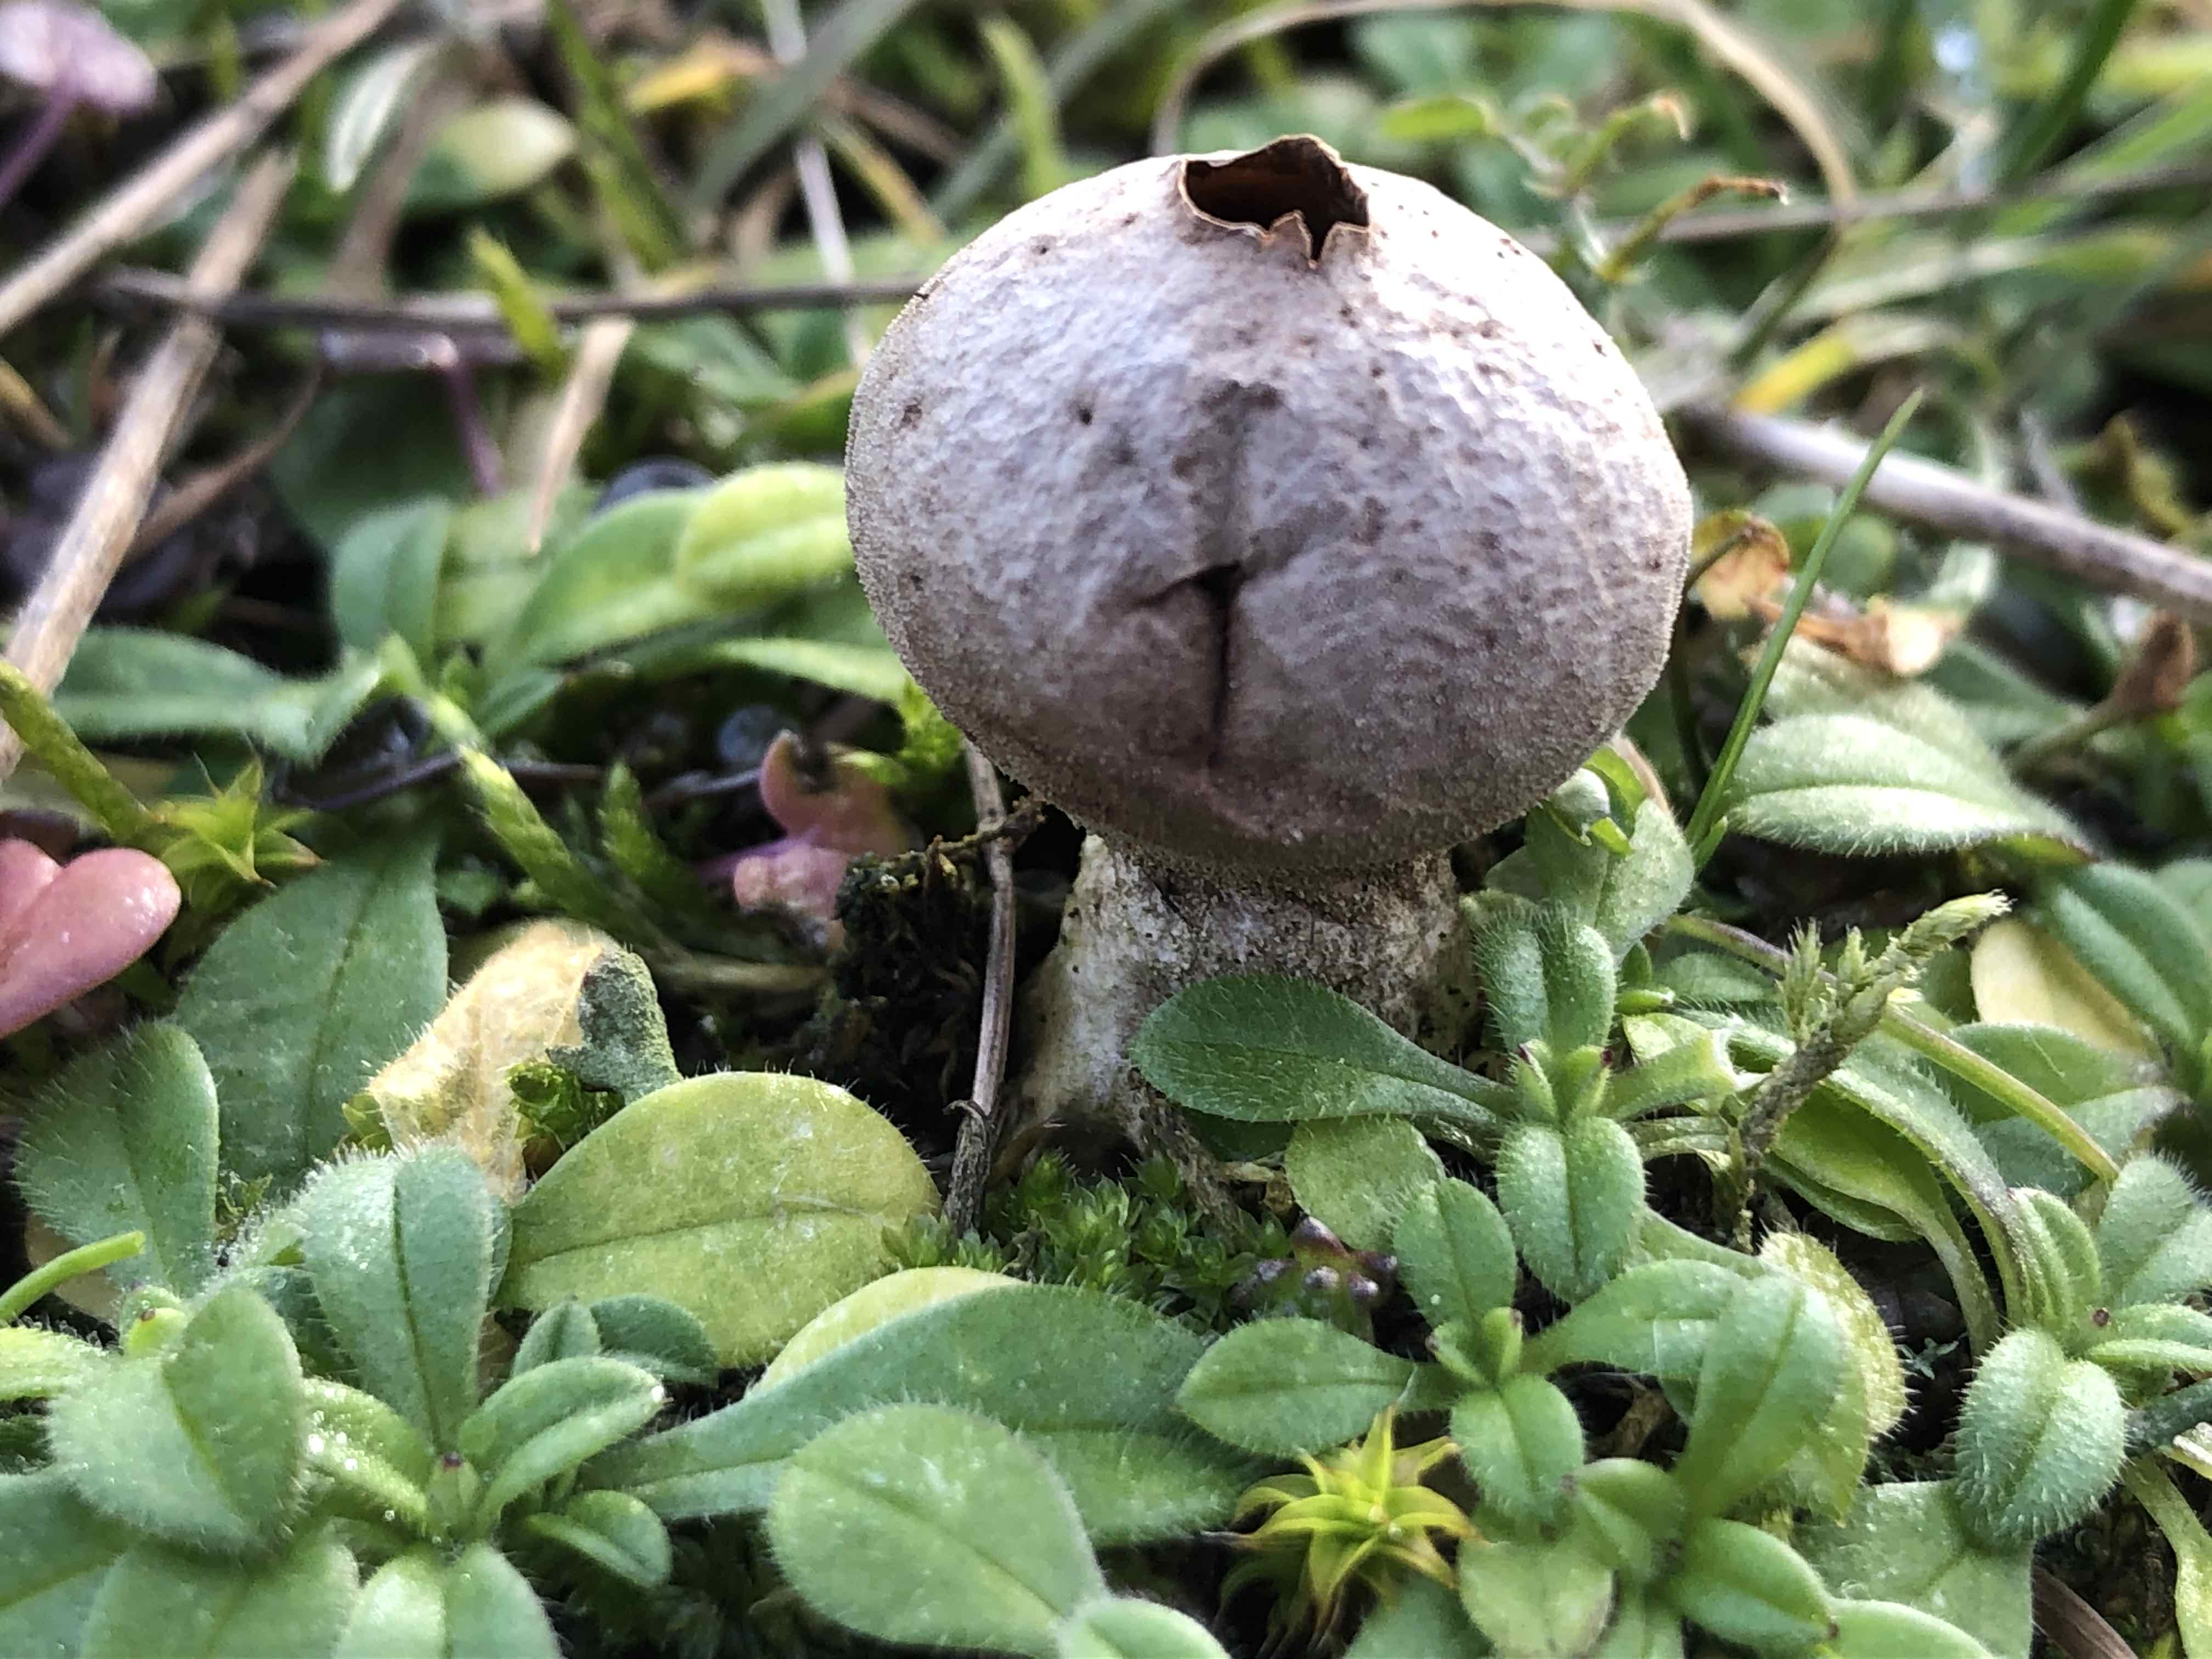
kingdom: Fungi
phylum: Basidiomycota
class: Agaricomycetes
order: Agaricales
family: Agaricaceae
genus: Lycoperdon
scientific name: Lycoperdon
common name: støvbold
